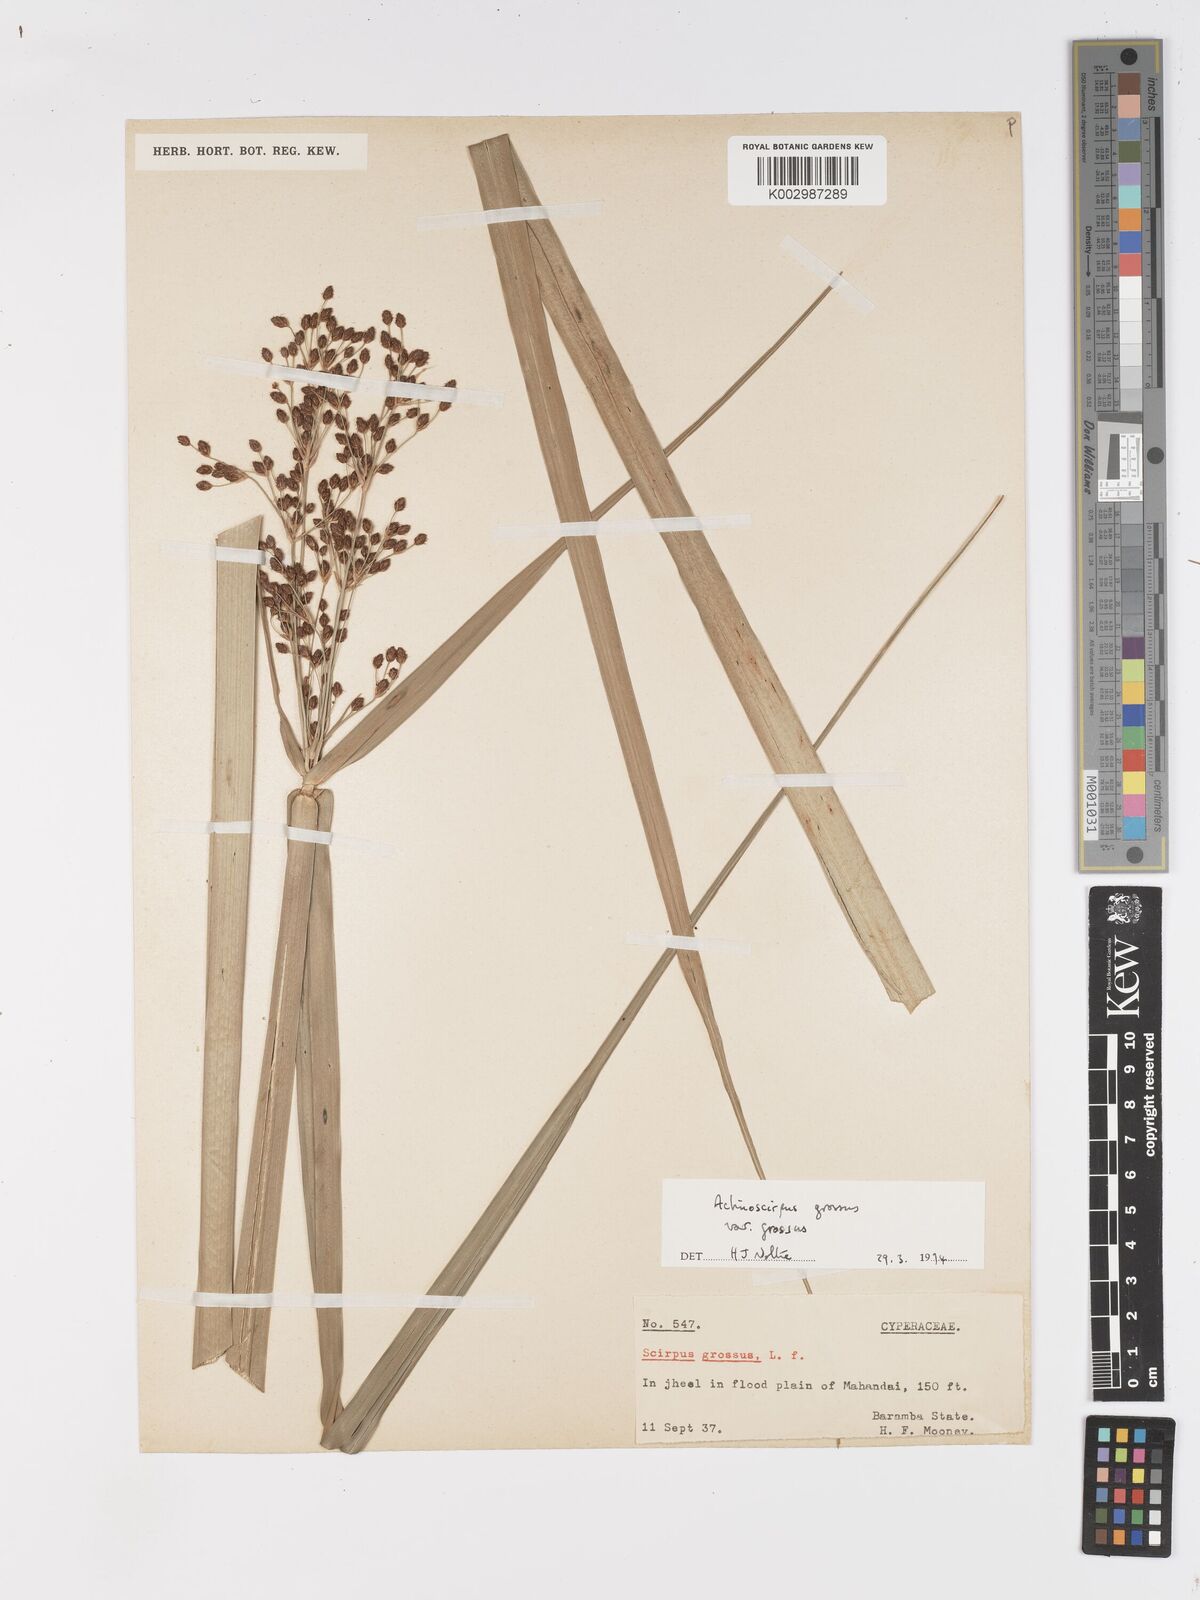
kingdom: Plantae
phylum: Tracheophyta
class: Liliopsida
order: Poales
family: Cyperaceae
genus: Actinoscirpus
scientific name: Actinoscirpus grossus
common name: Giant bur rush
